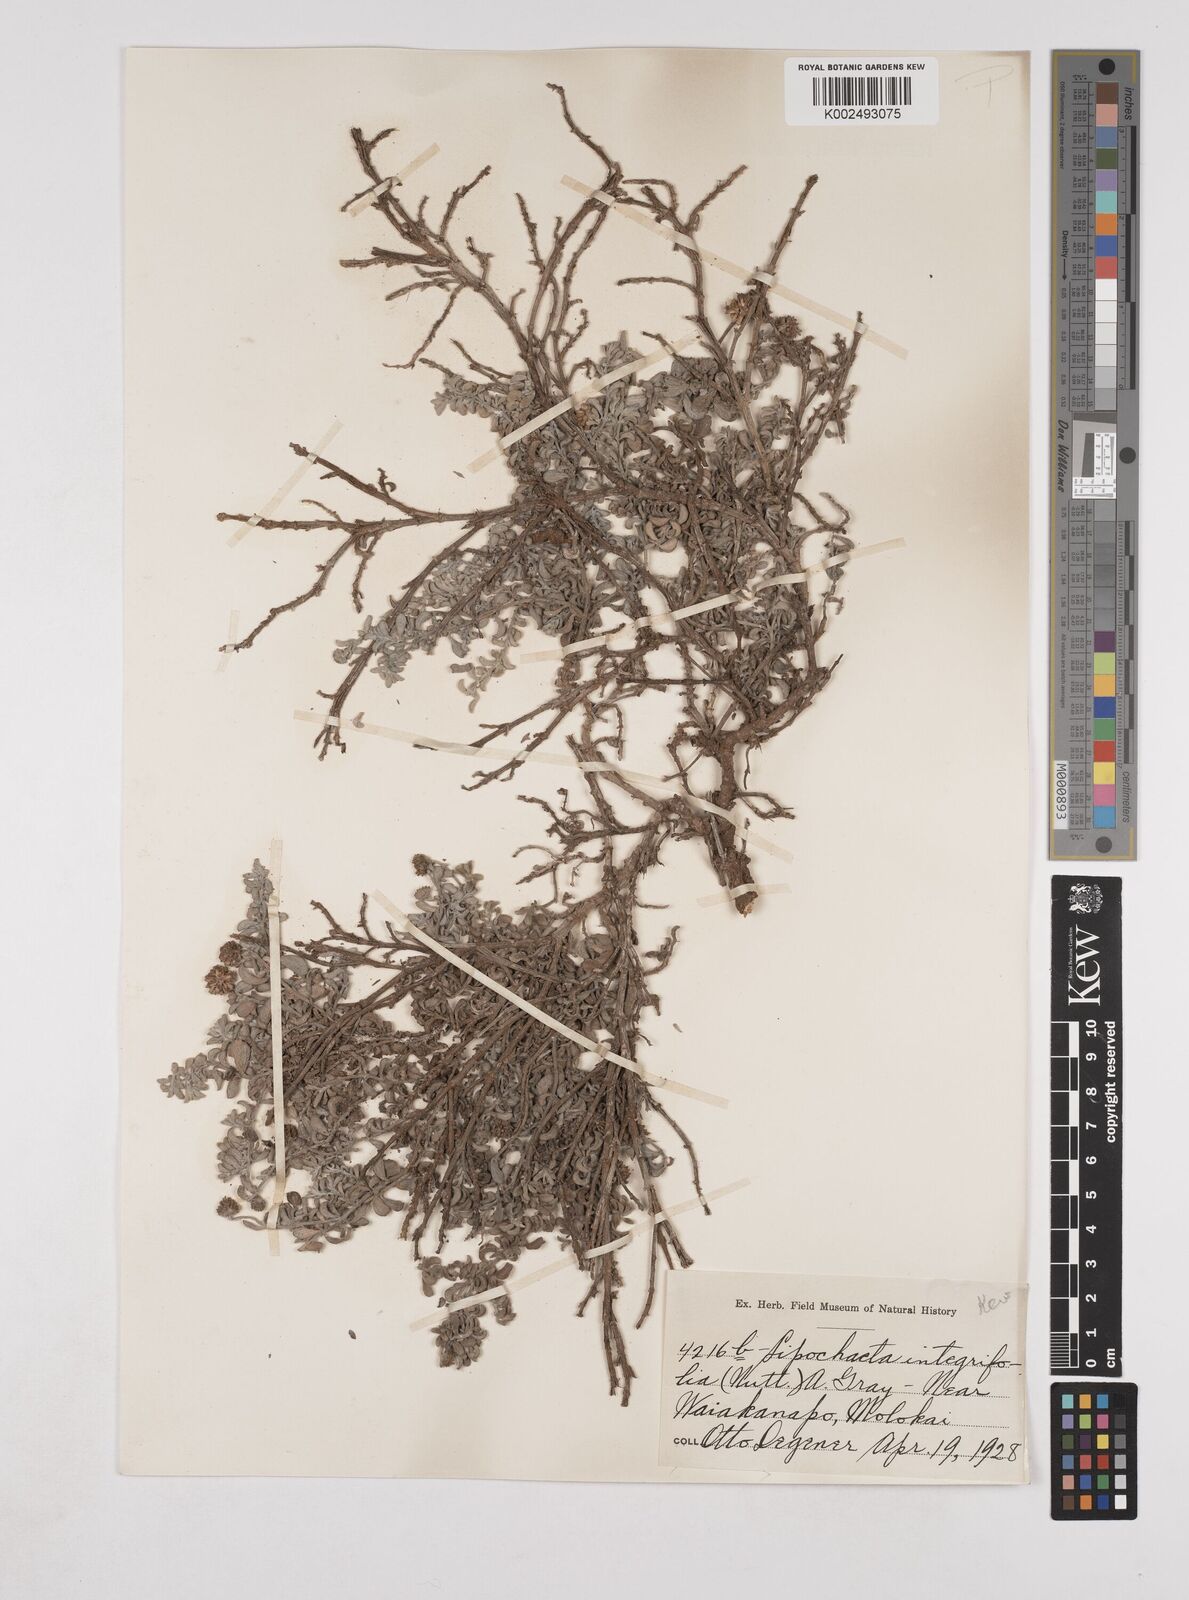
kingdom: Plantae
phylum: Tracheophyta
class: Magnoliopsida
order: Asterales
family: Asteraceae
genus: Lipochaeta
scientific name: Lipochaeta integrifolia
